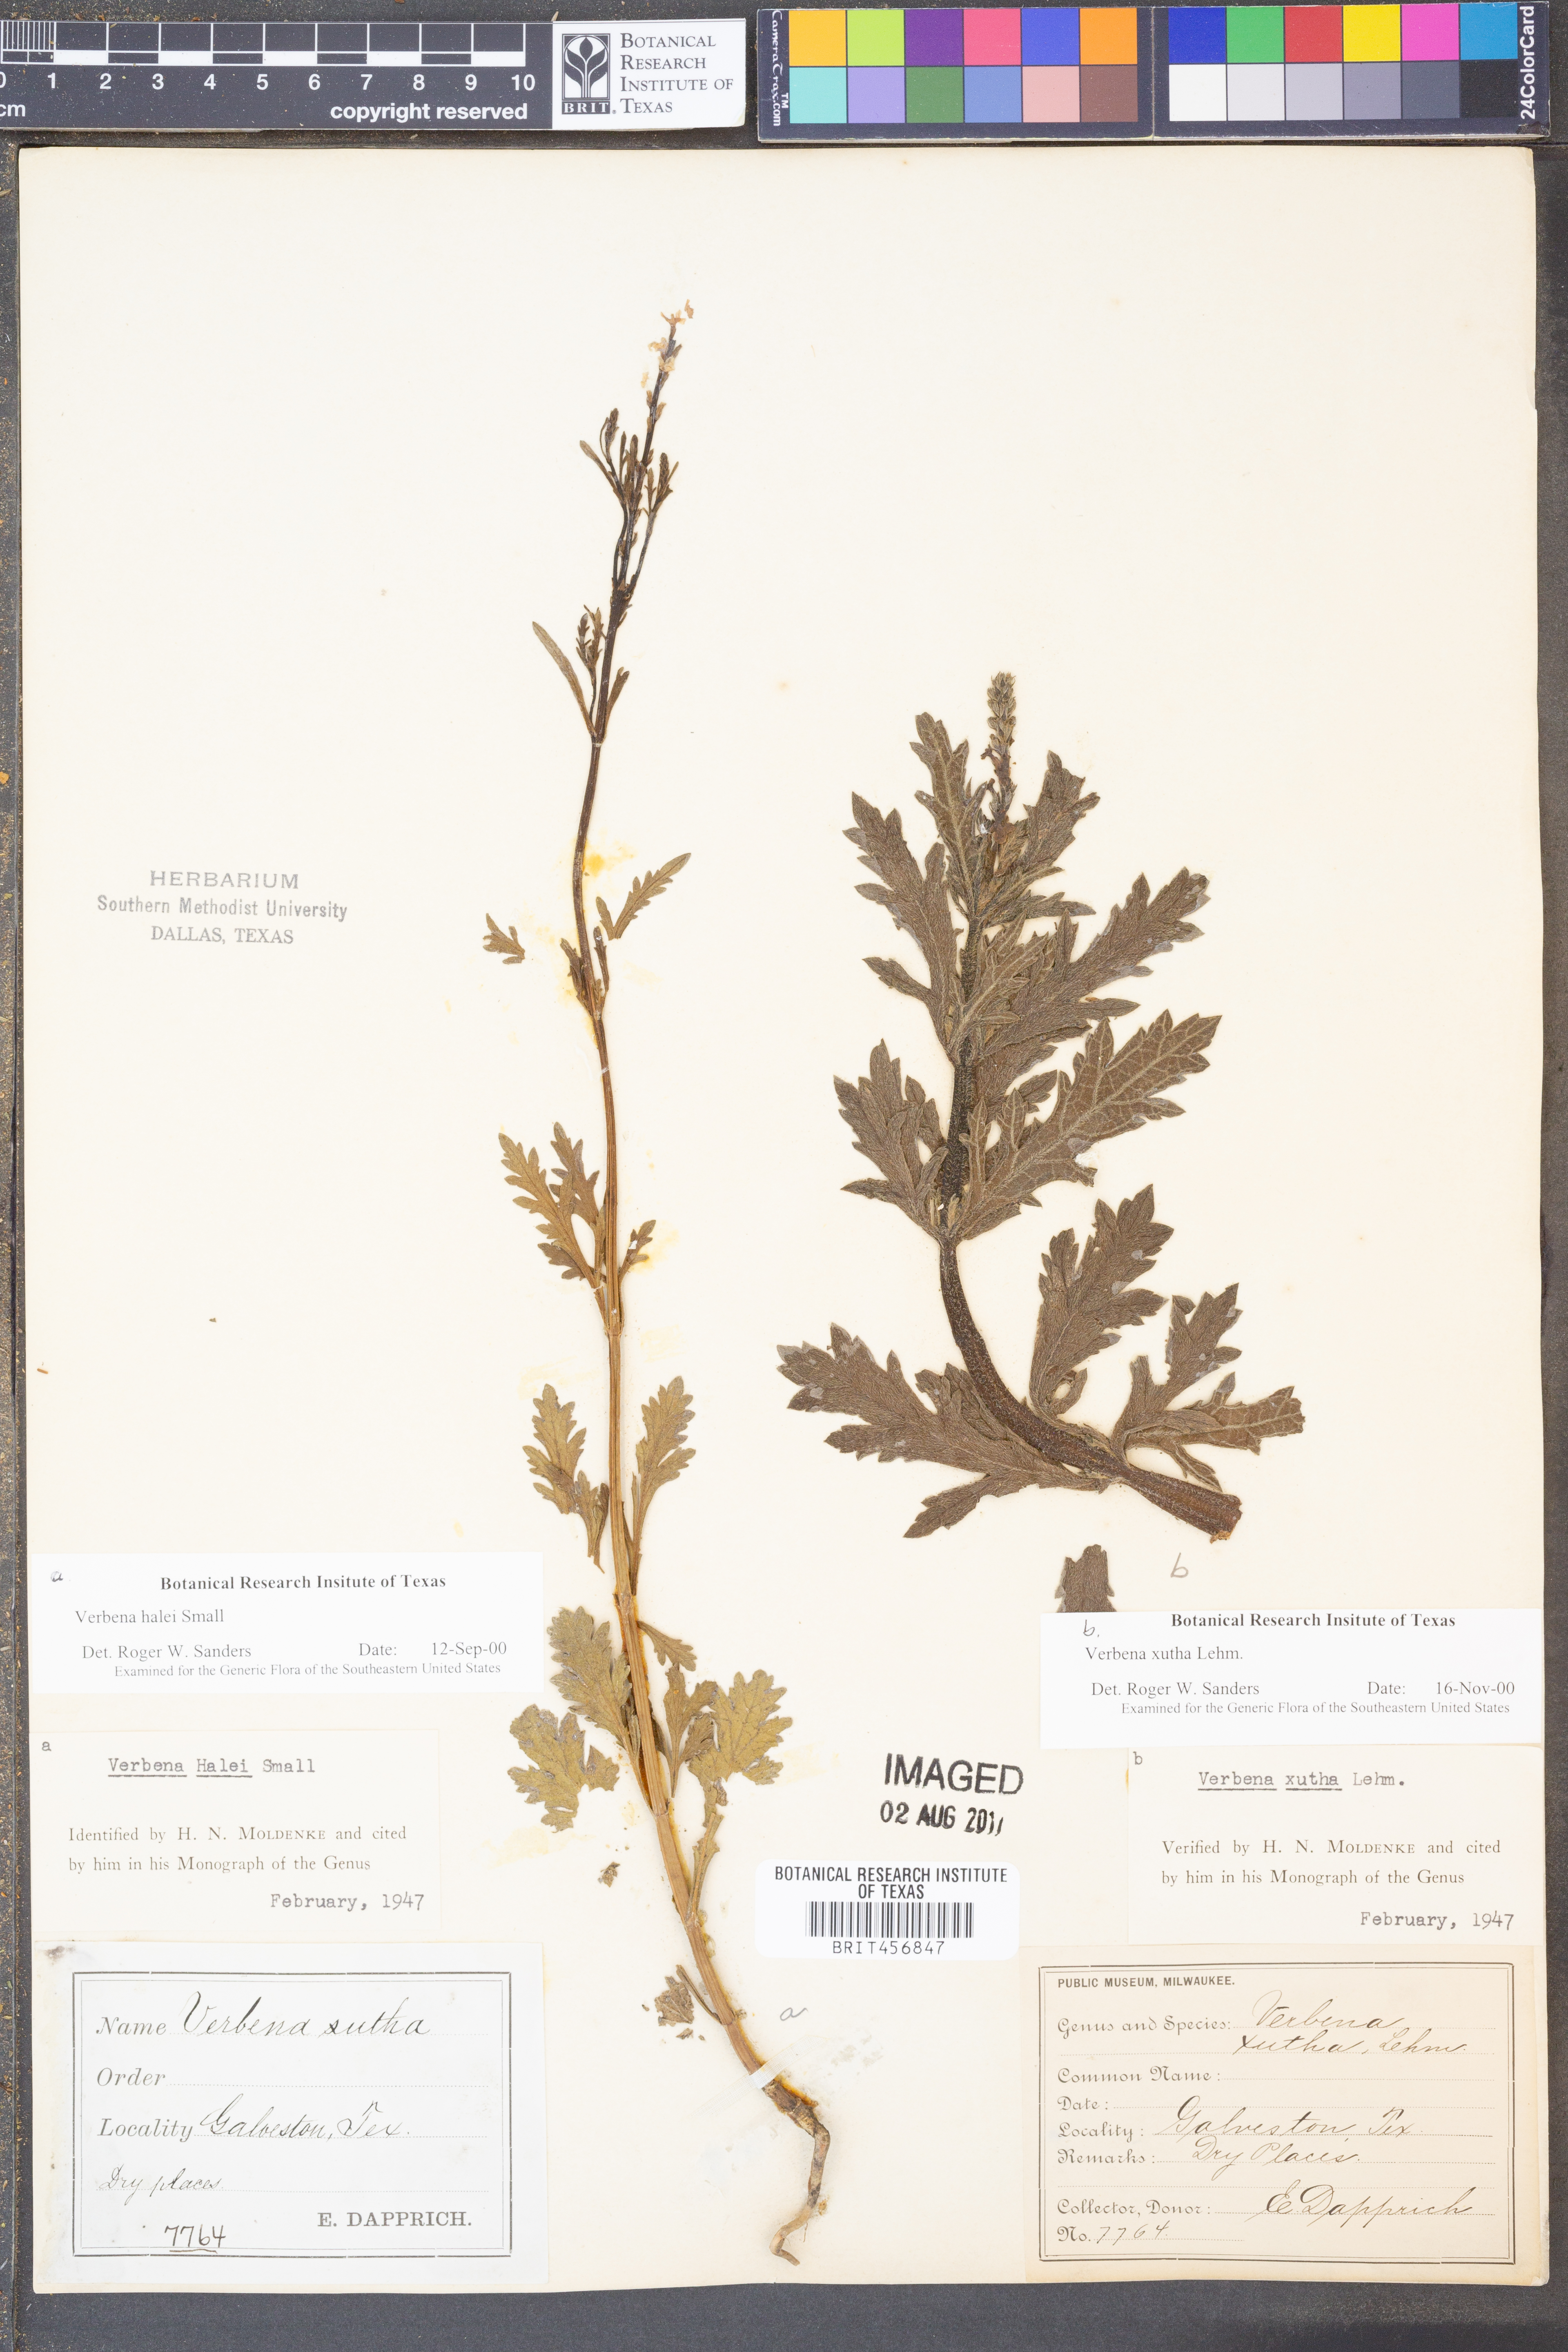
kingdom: Plantae
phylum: Tracheophyta
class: Magnoliopsida
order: Lamiales
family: Verbenaceae
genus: Verbena
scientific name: Verbena xutha
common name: Gulf vervain
